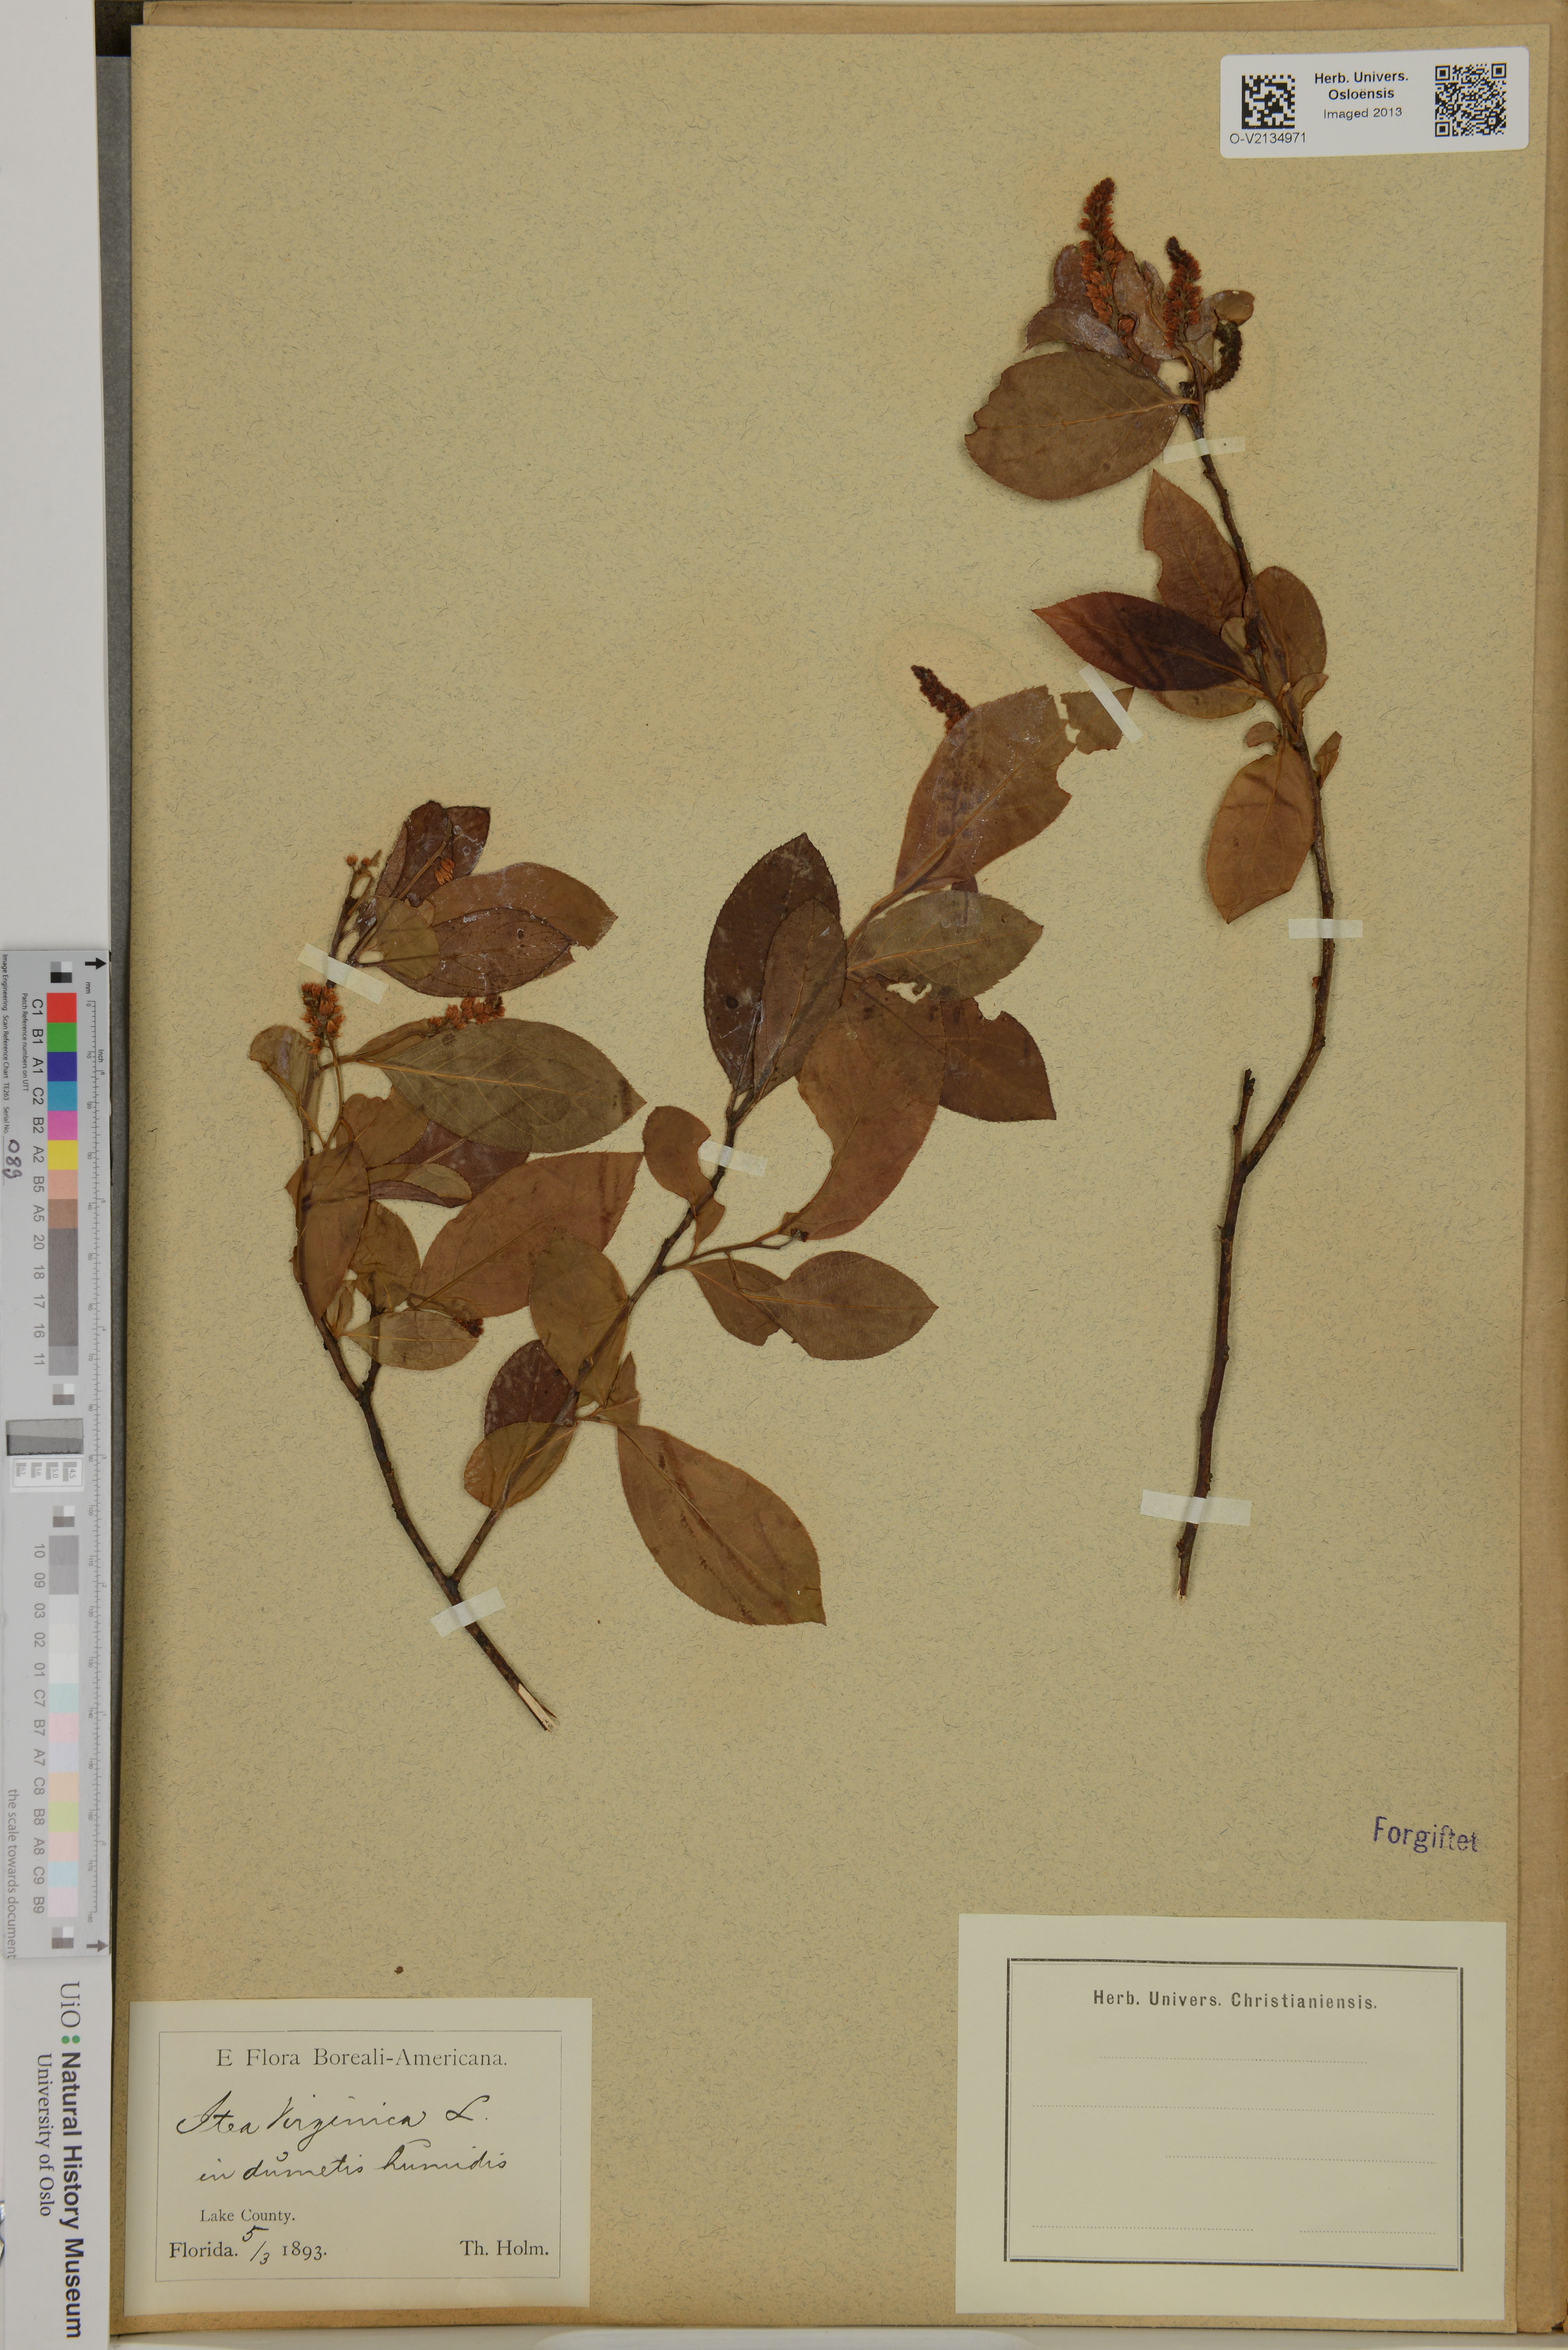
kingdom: Plantae
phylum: Tracheophyta
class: Magnoliopsida
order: Saxifragales
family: Iteaceae
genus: Itea
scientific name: Itea virginica
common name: Sweetspire
